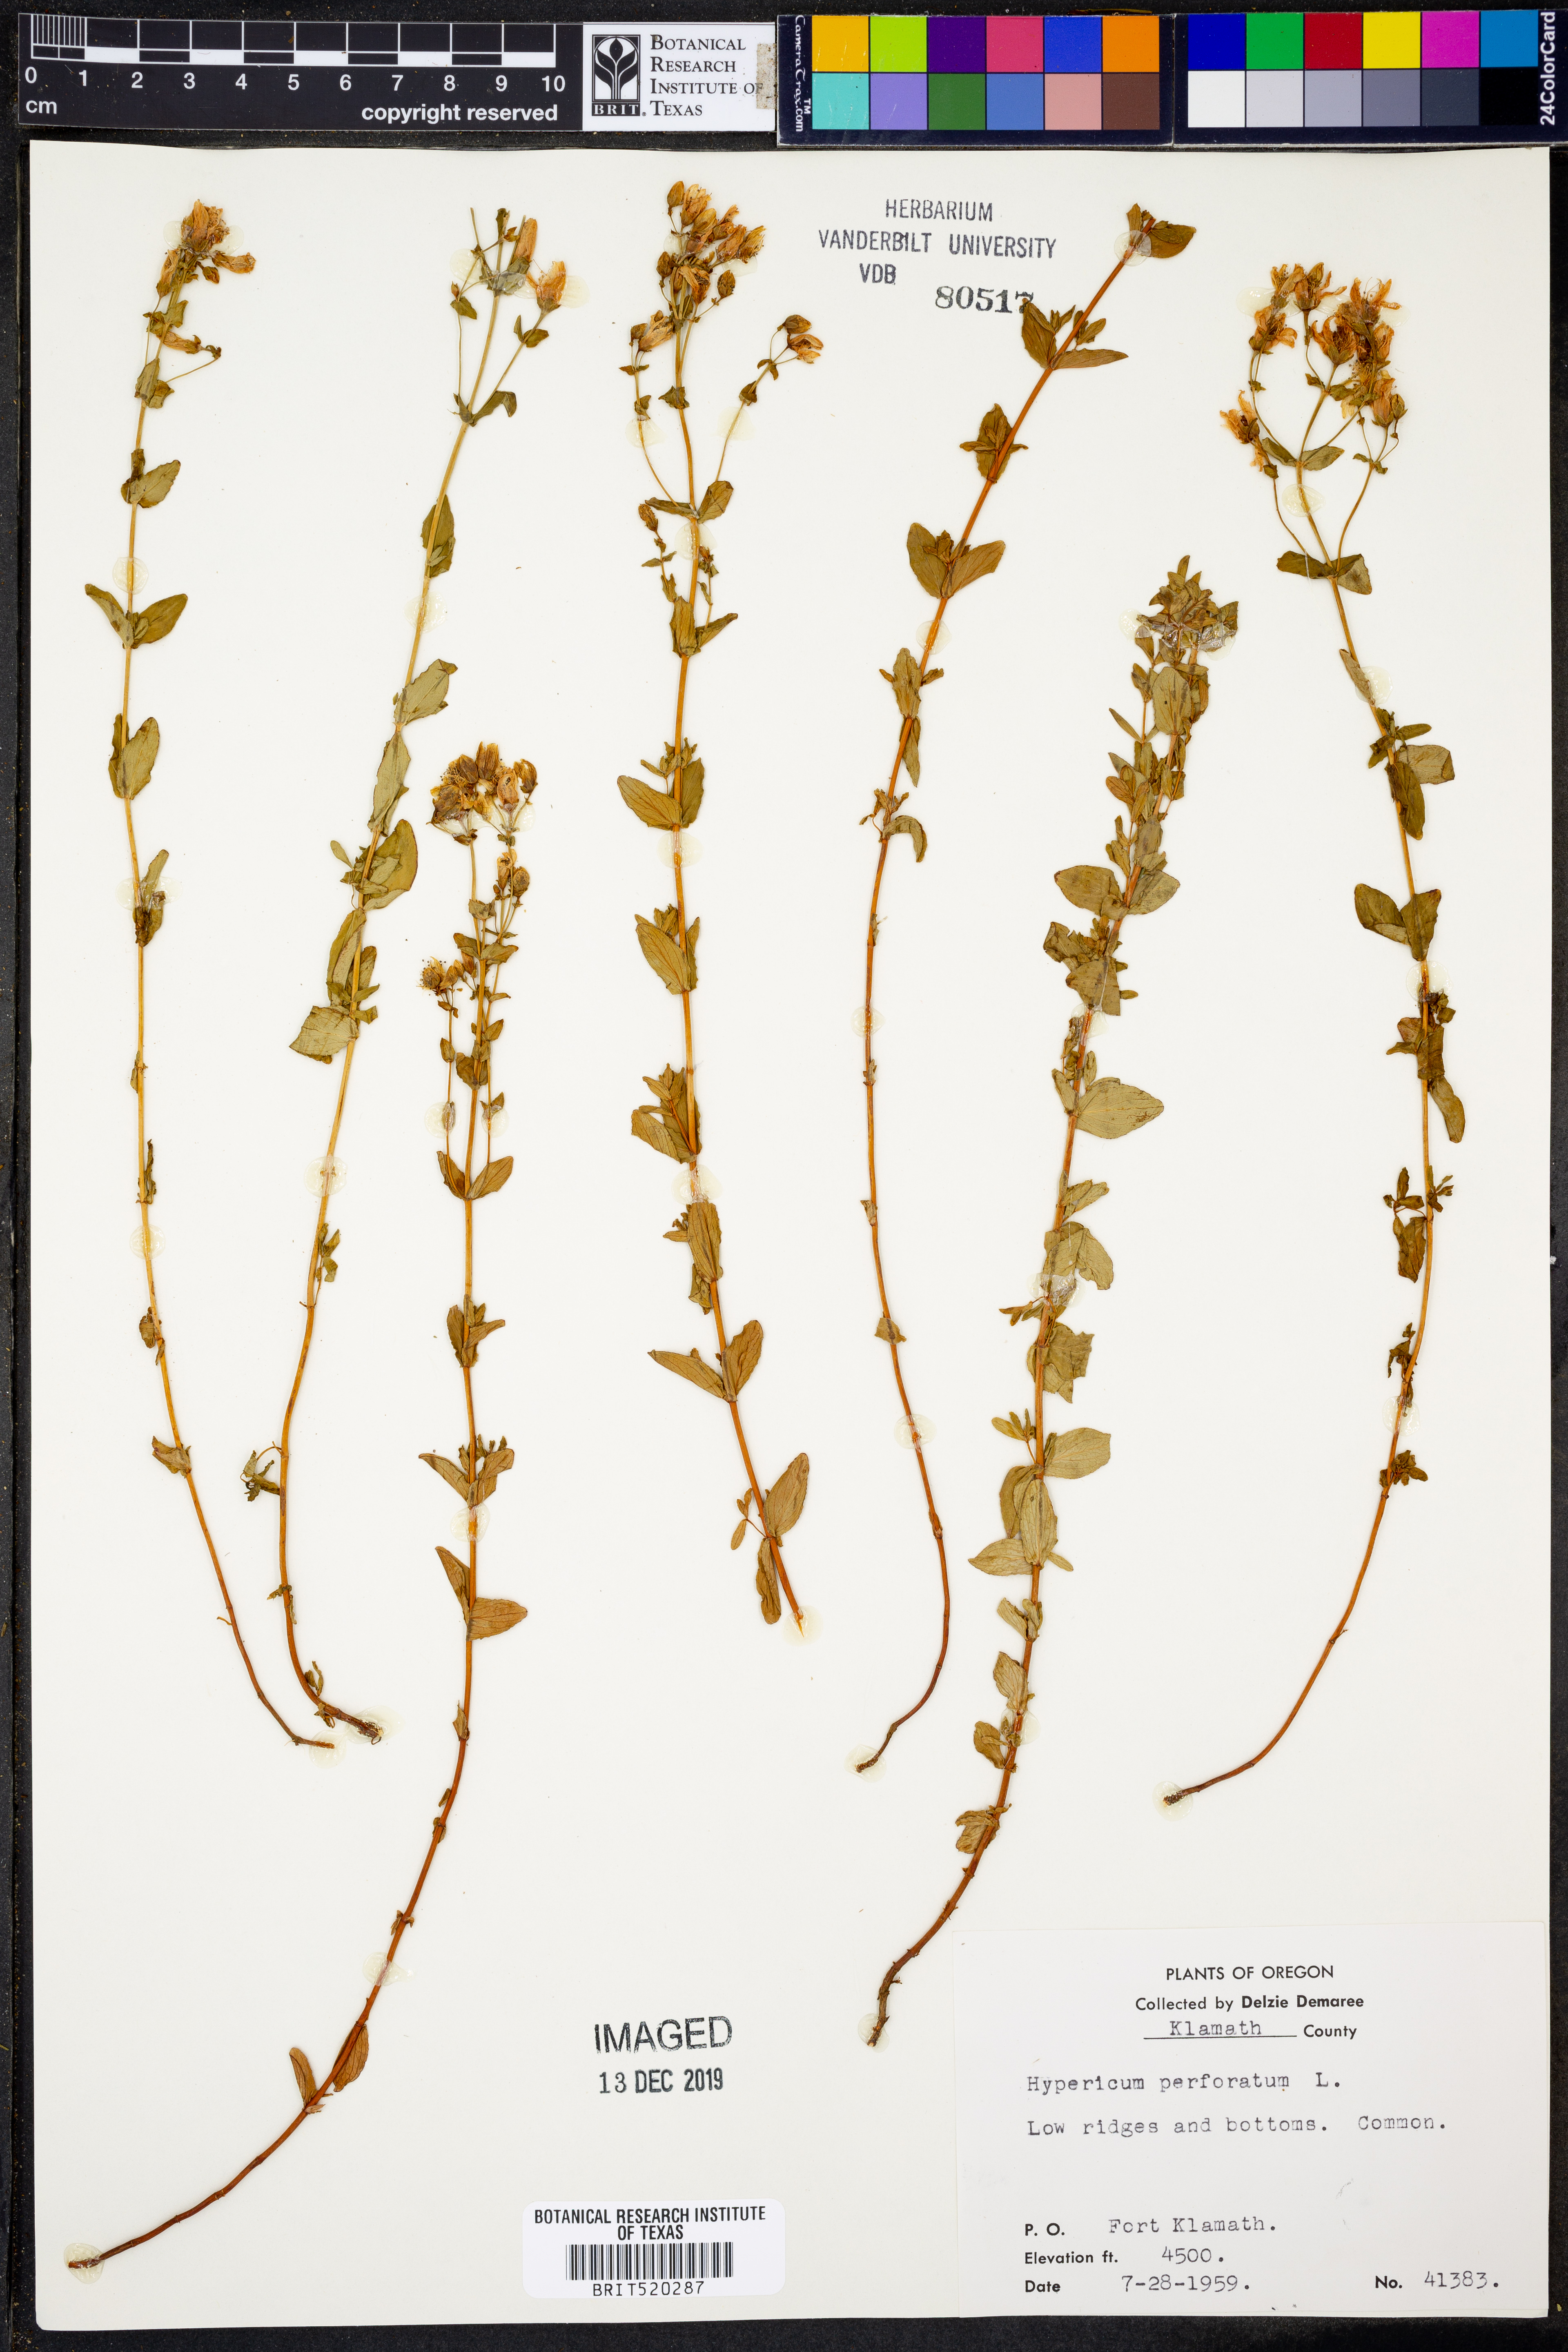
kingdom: Plantae
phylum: Tracheophyta
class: Magnoliopsida
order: Malpighiales
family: Hypericaceae
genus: Hypericum
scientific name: Hypericum perforatum
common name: Common st. johnswort
